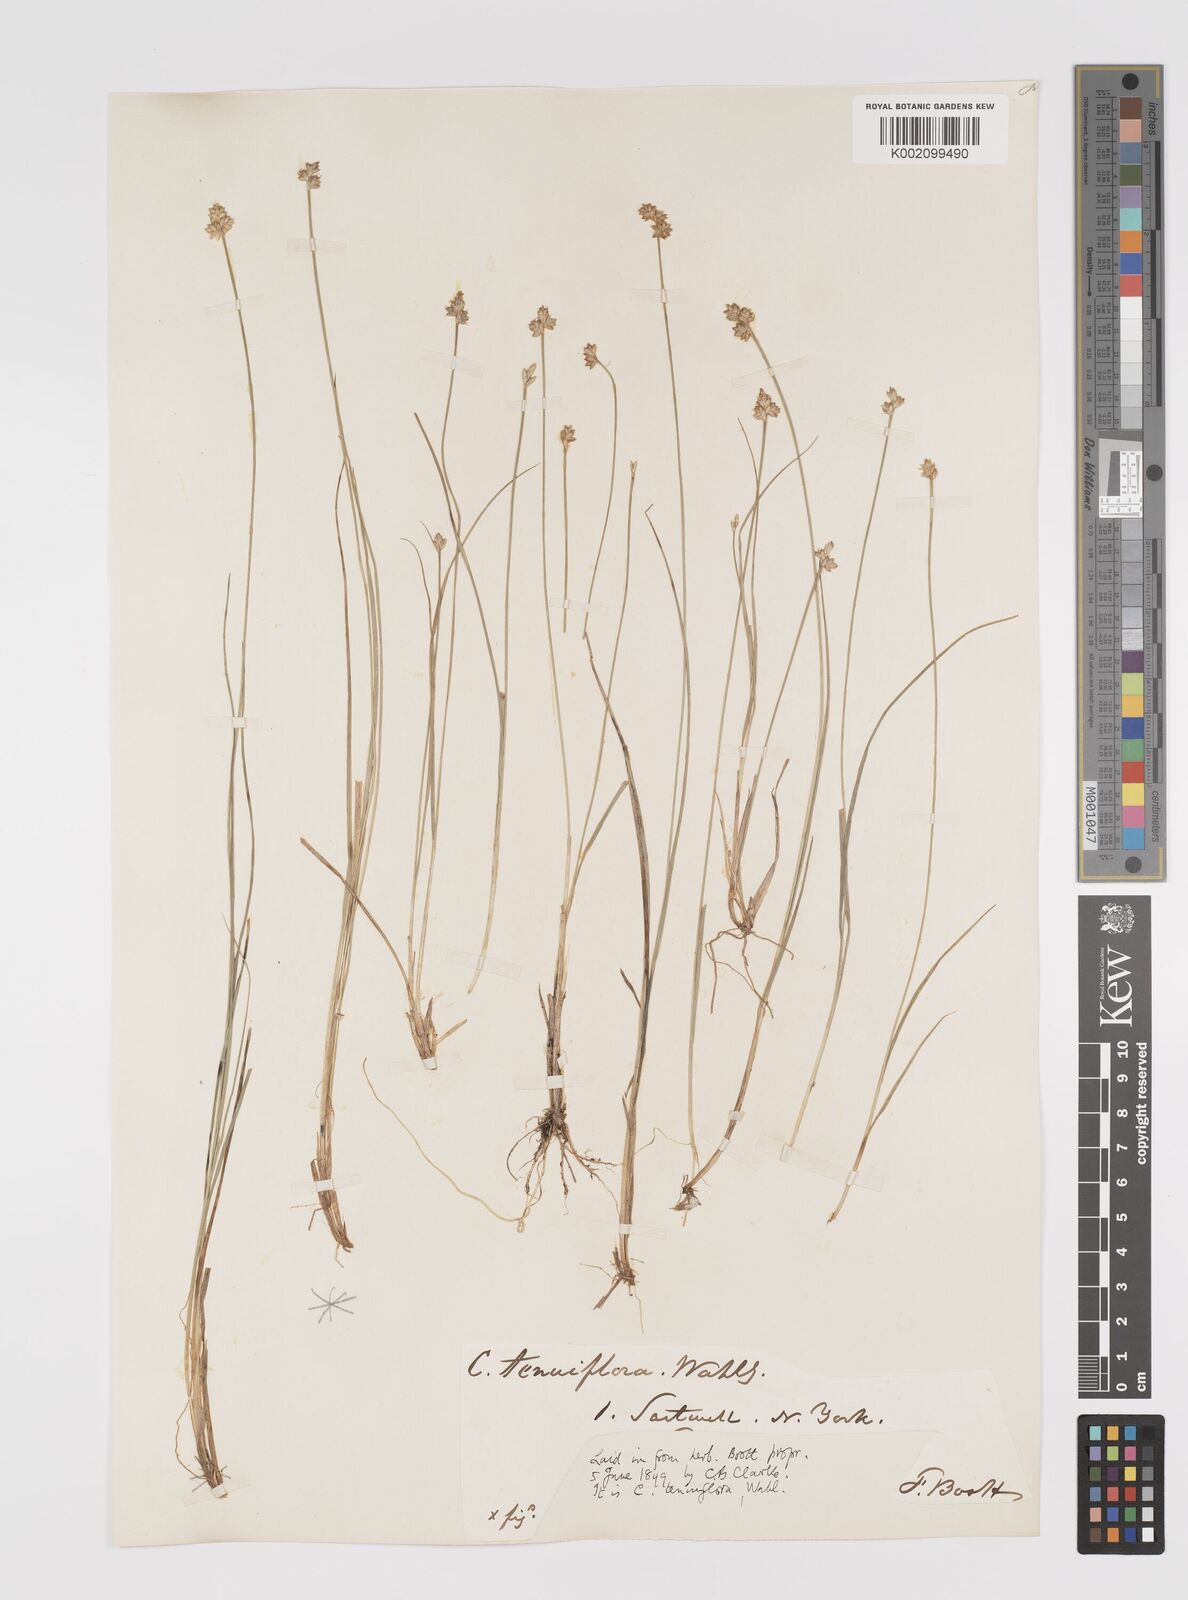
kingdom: Plantae
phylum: Tracheophyta
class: Liliopsida
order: Poales
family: Cyperaceae
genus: Carex
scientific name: Carex tenuiflora
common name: Sparse-flowered sedge
